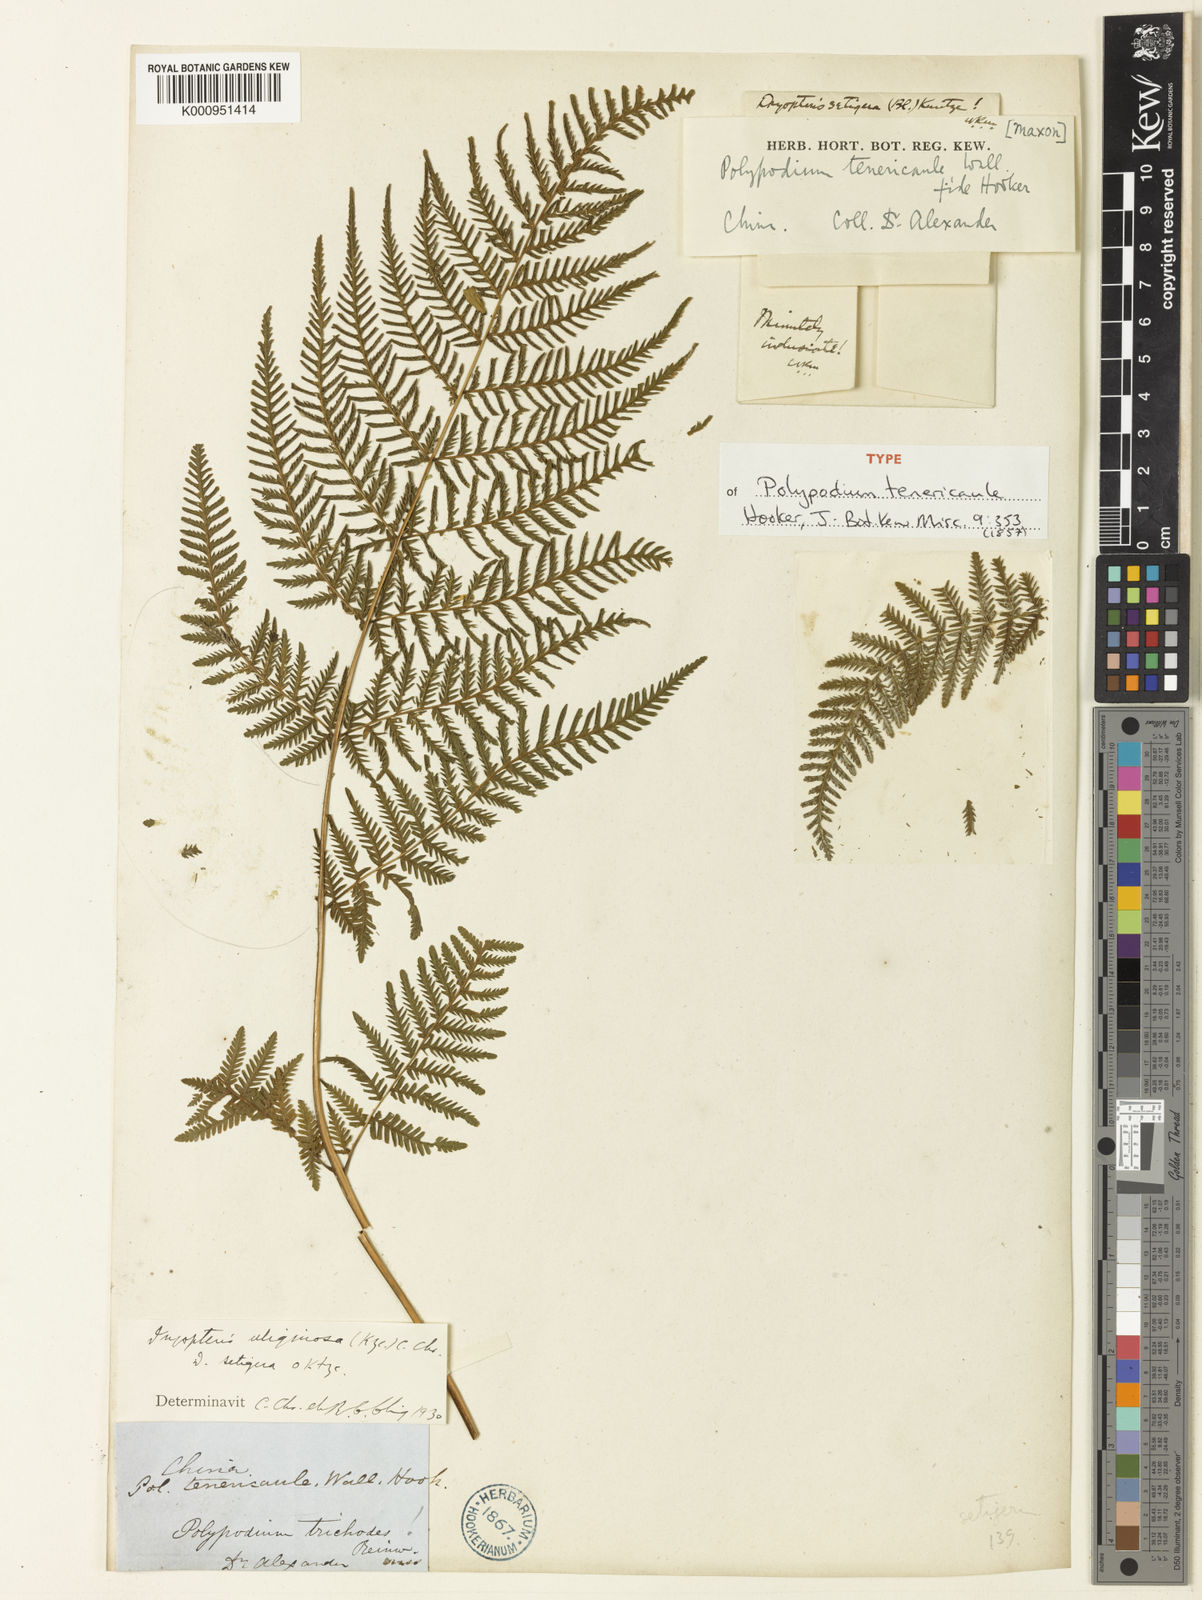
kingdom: Plantae
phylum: Tracheophyta
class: Polypodiopsida
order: Polypodiales
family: Thelypteridaceae
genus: Macrothelypteris
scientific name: Macrothelypteris torresiana
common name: Swordfern
